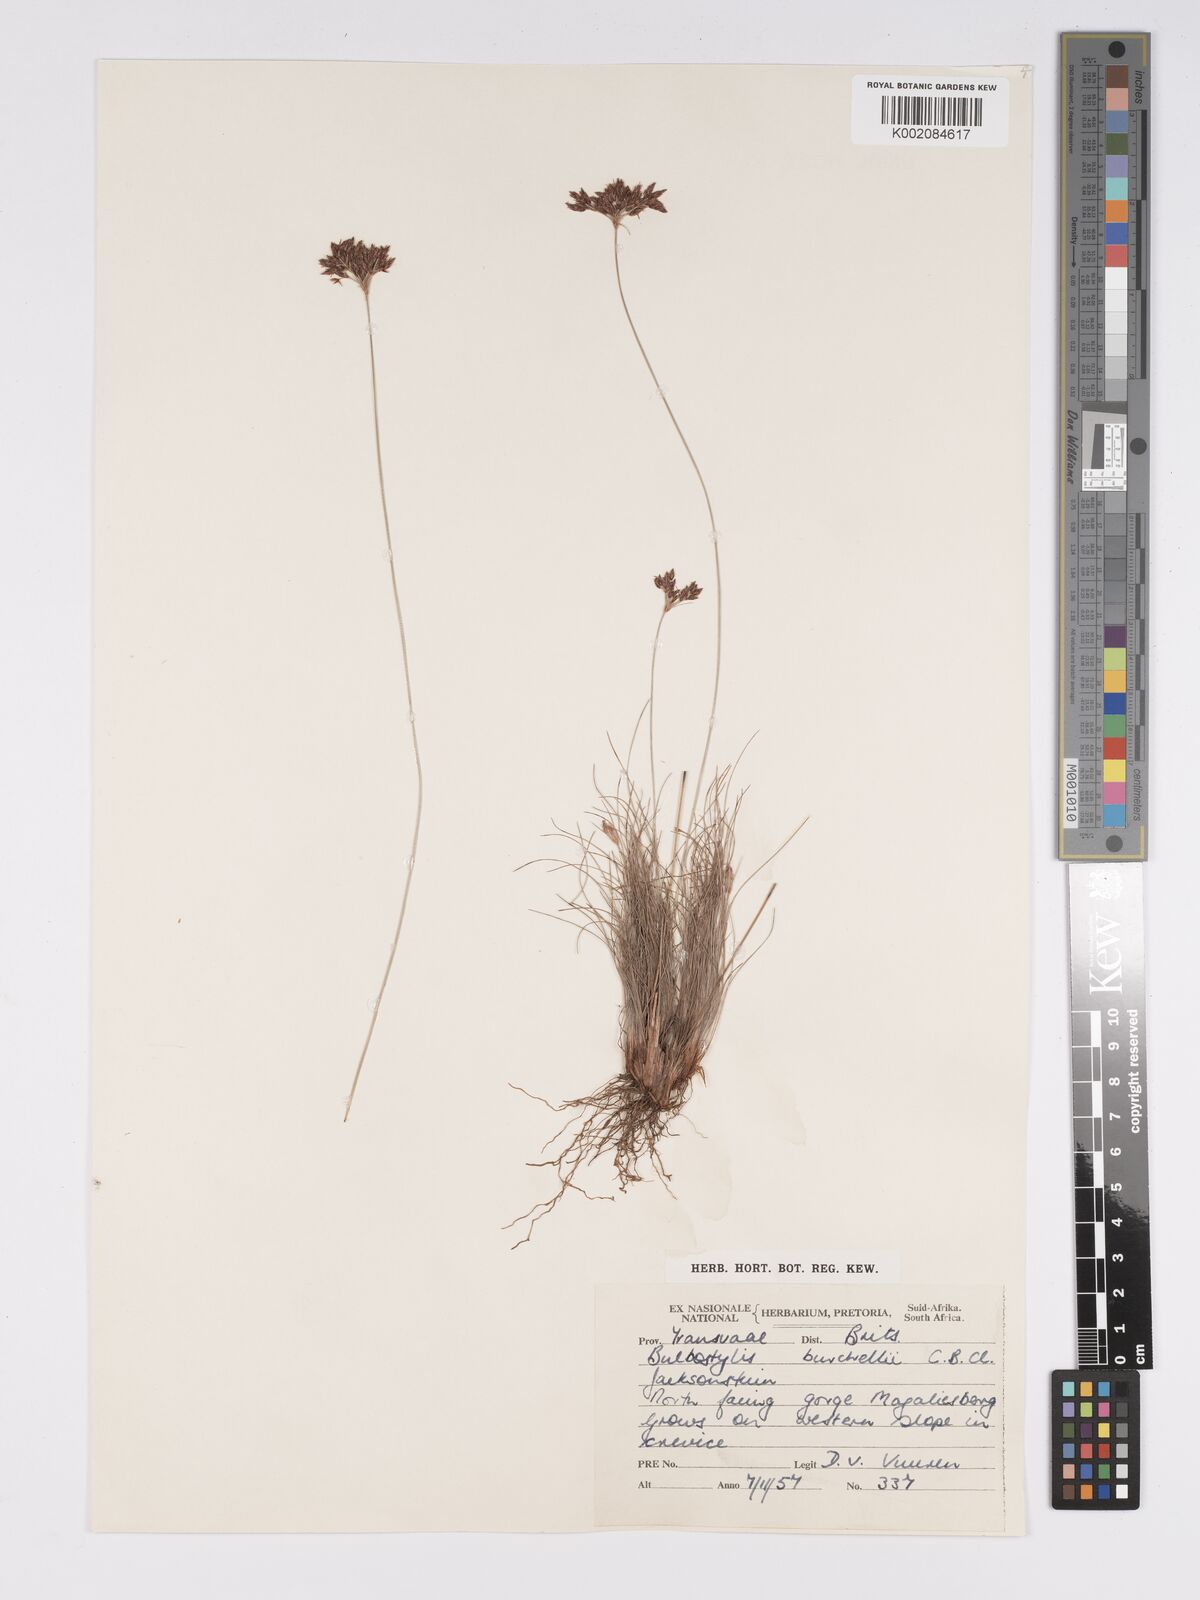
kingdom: Plantae
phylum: Tracheophyta
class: Liliopsida
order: Poales
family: Cyperaceae
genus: Bulbostylis
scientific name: Bulbostylis burchellii
